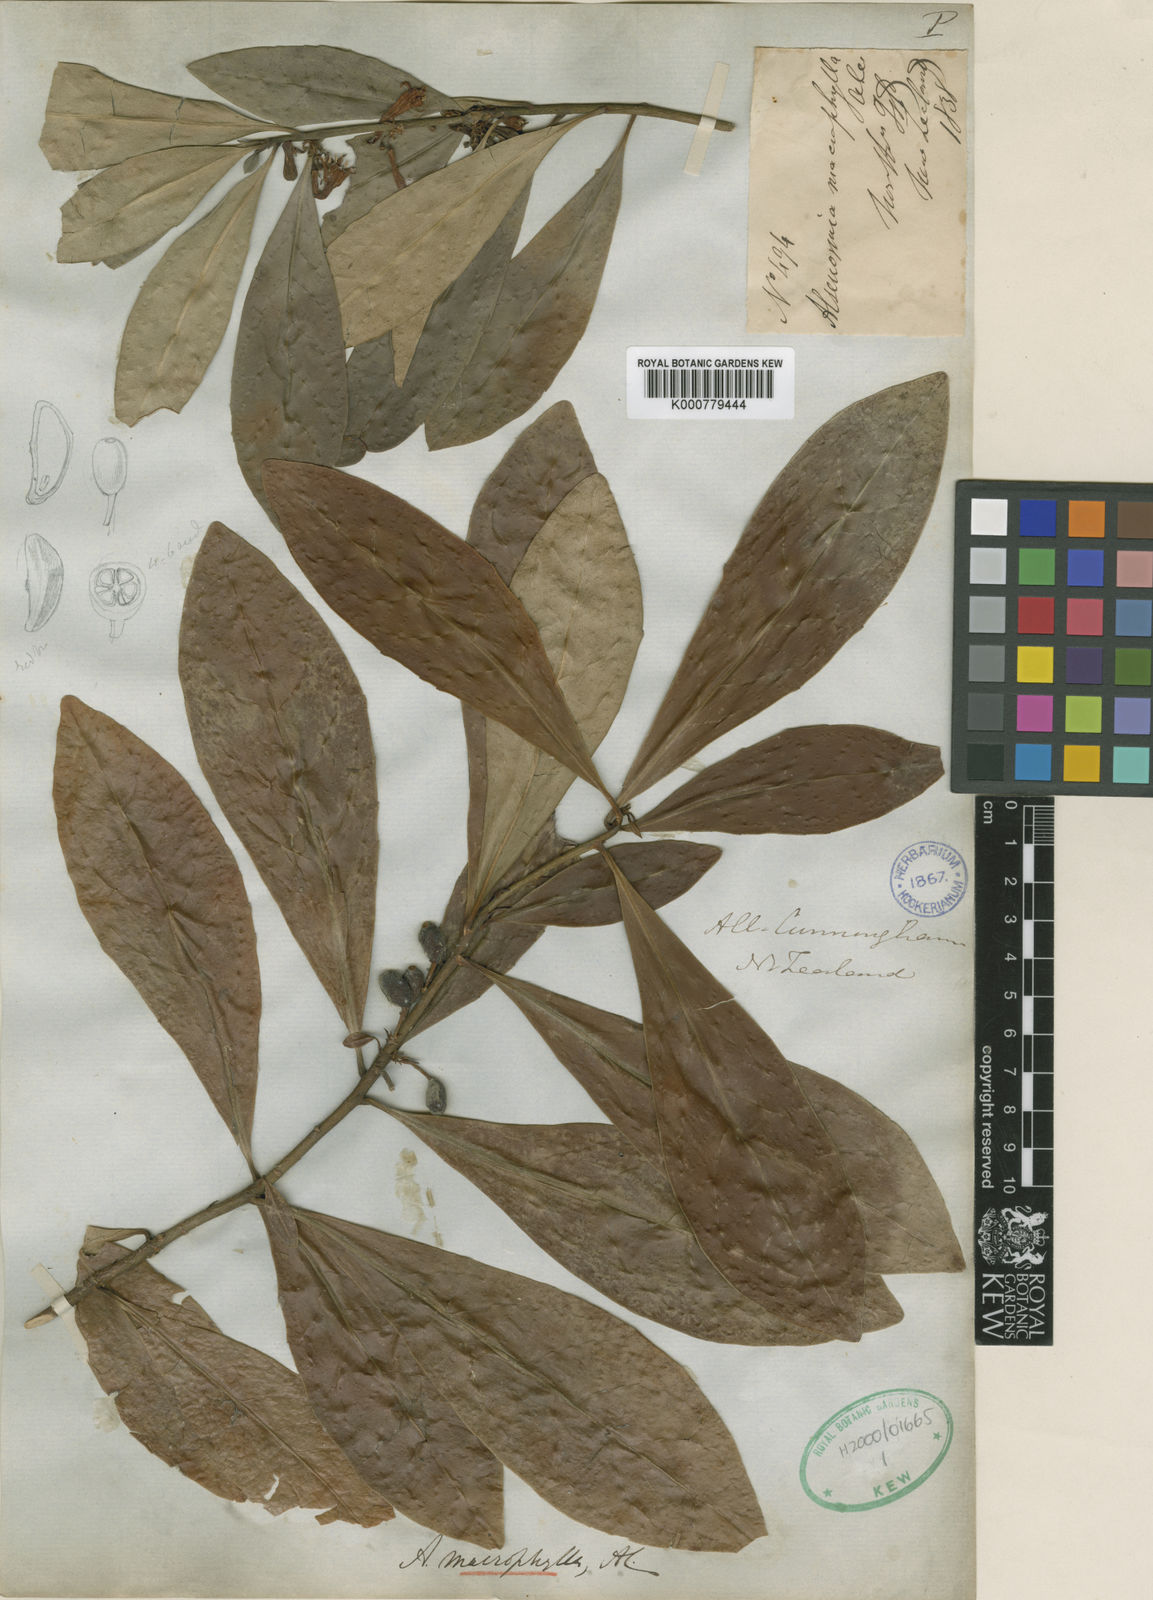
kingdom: Plantae
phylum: Tracheophyta
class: Magnoliopsida
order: Asterales
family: Alseuosmiaceae
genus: Alseuosmia
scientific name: Alseuosmia macrophylla
